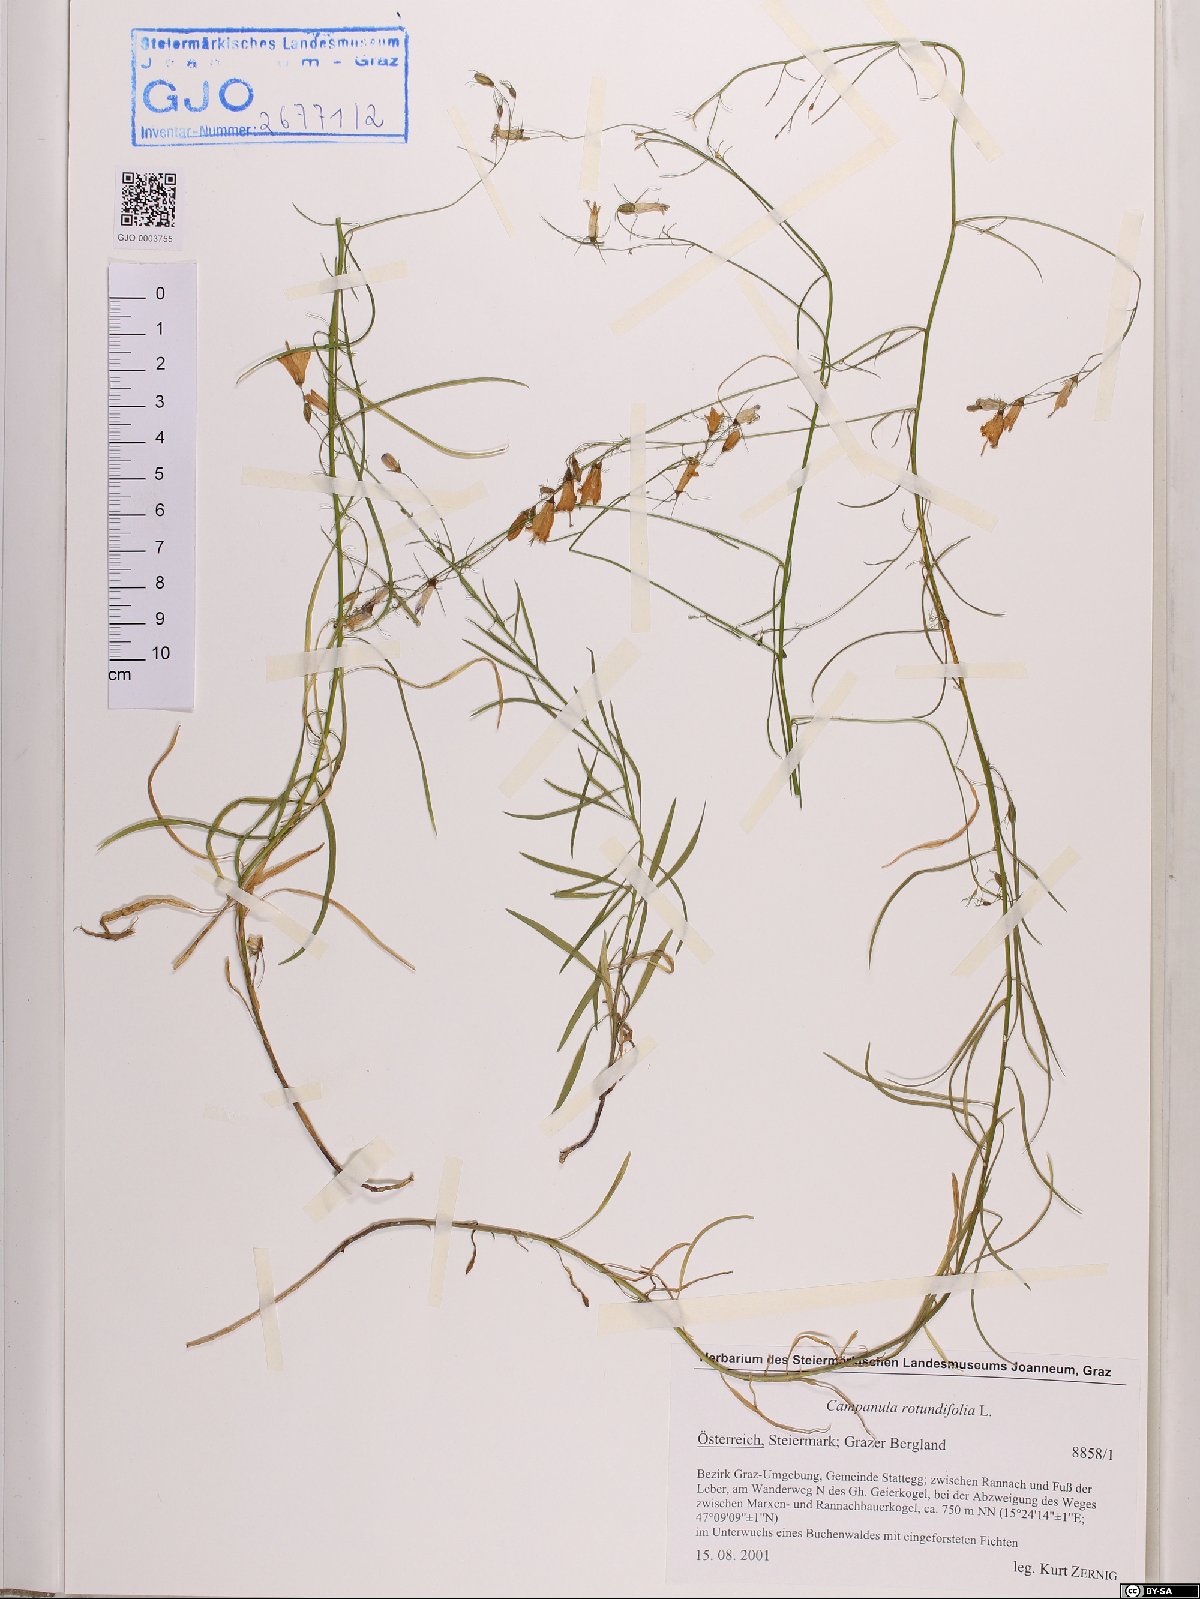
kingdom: Plantae
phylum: Tracheophyta
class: Magnoliopsida
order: Asterales
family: Campanulaceae
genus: Campanula
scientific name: Campanula rotundifolia
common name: Harebell
